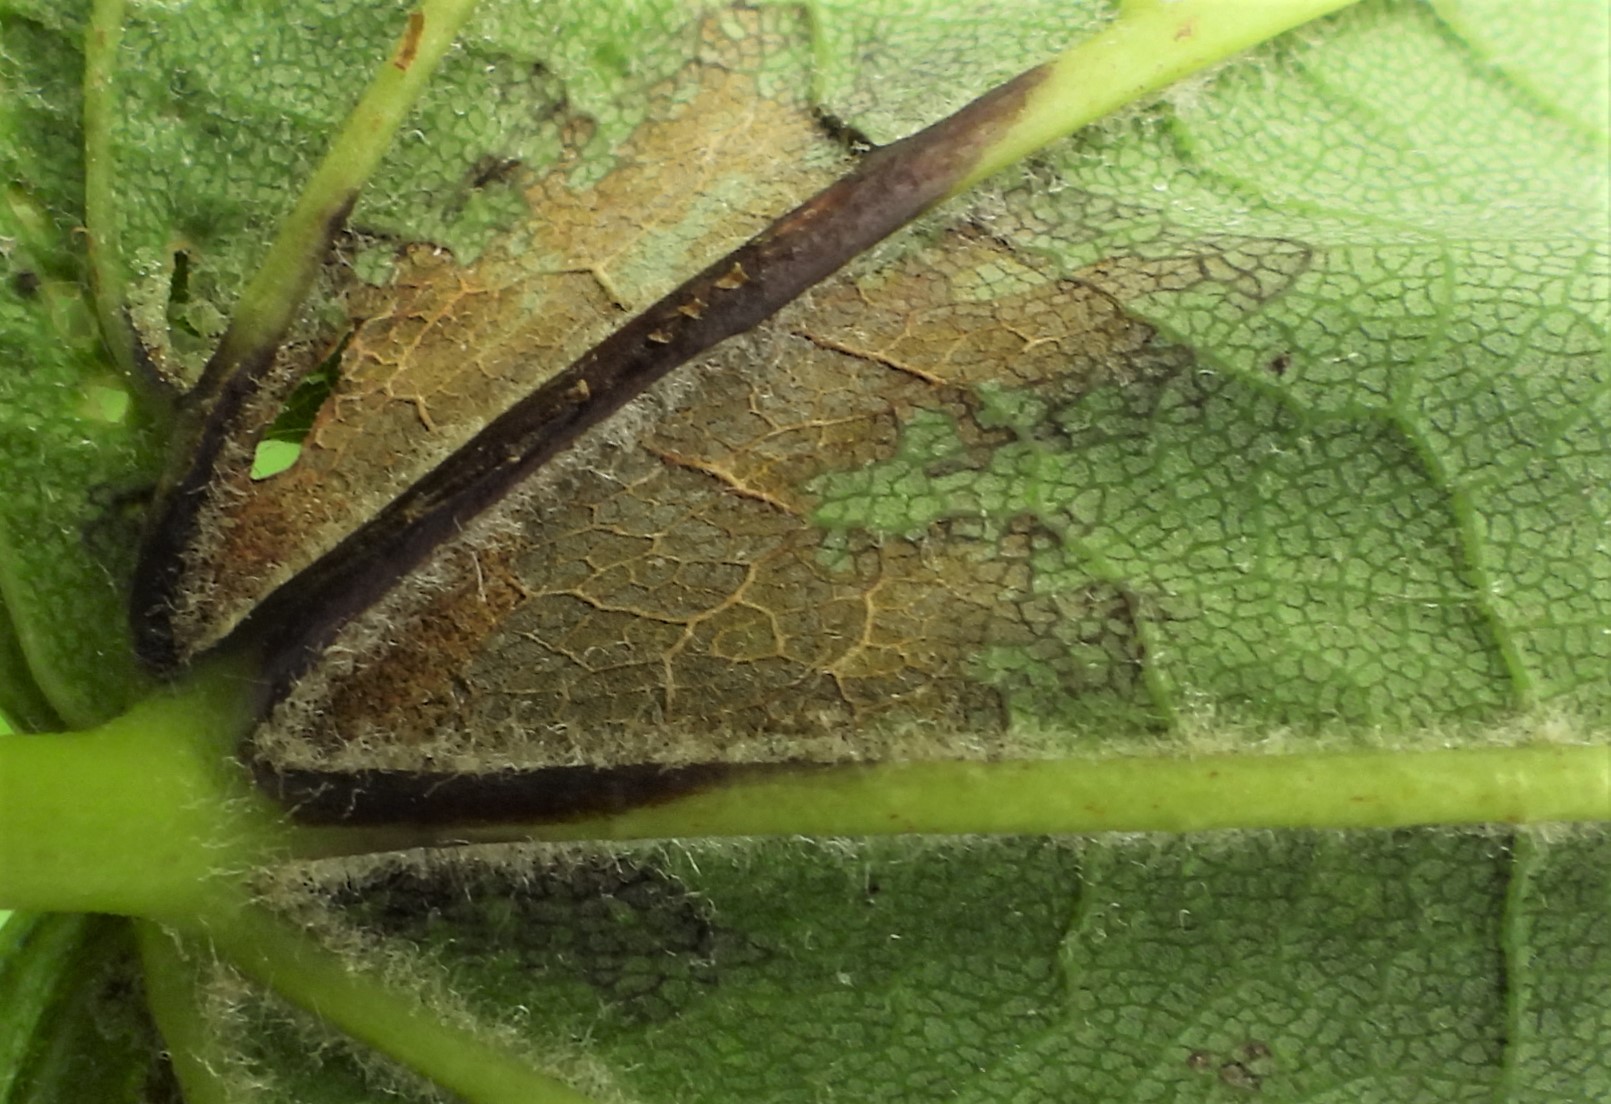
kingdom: Fungi
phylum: Ascomycota
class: Sordariomycetes
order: Diaporthales
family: Gnomoniaceae
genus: Pleuroceras
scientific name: Pleuroceras pseudoplatani
